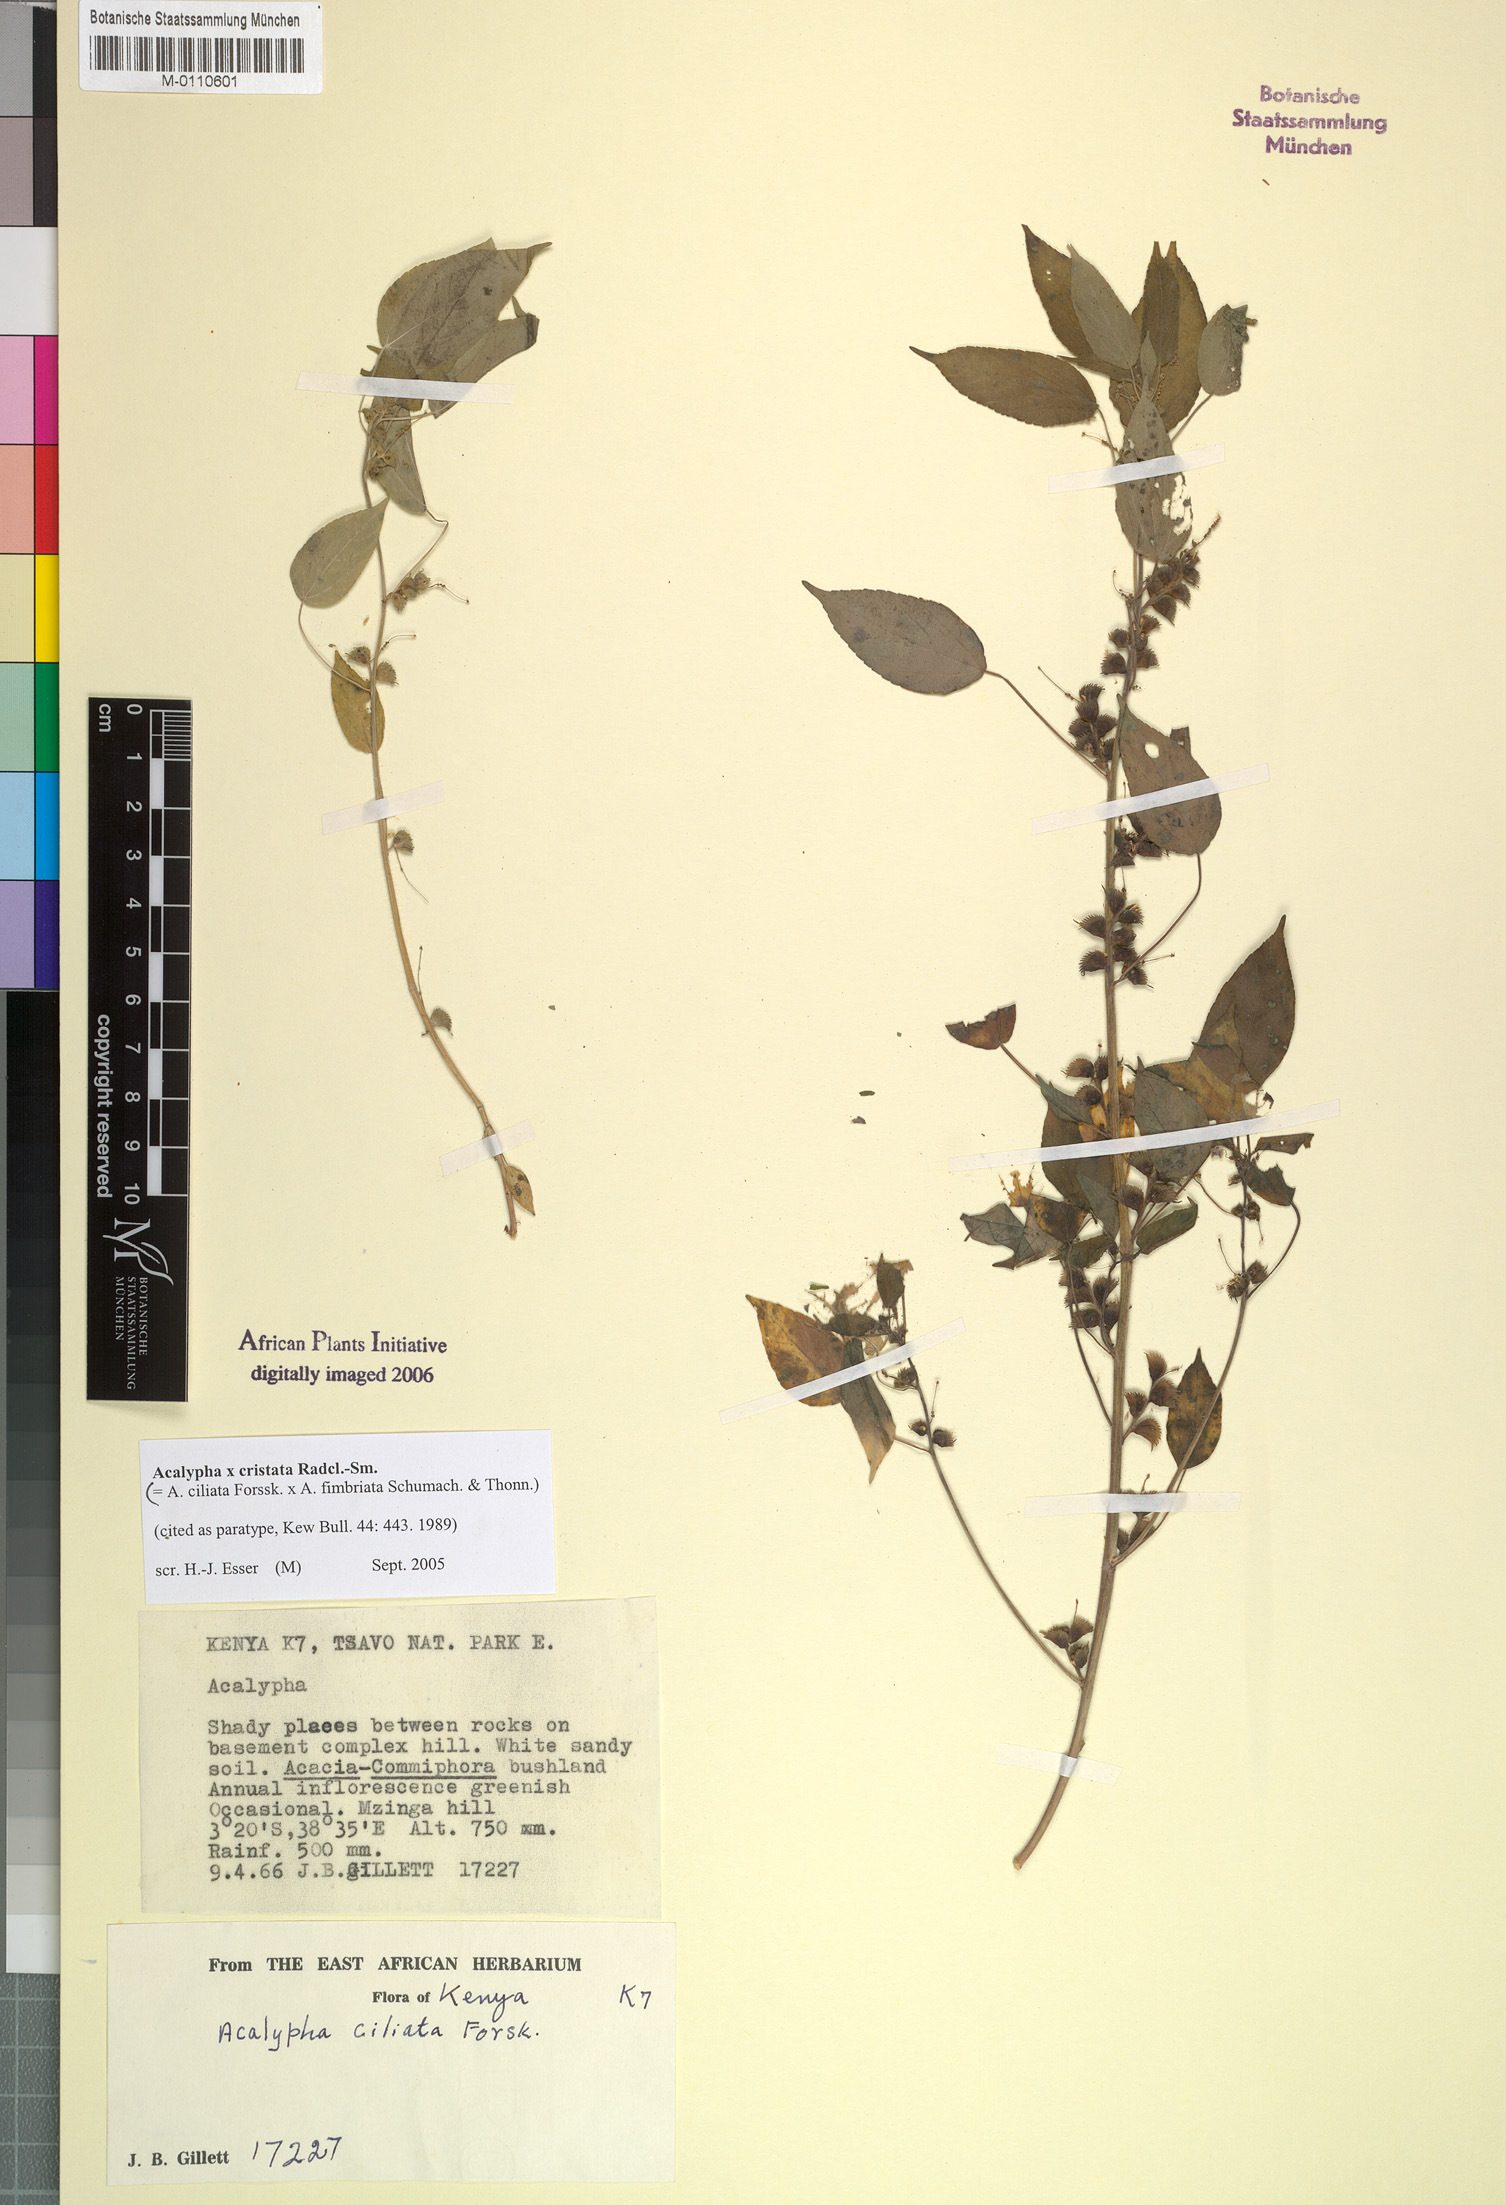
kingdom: Plantae
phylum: Tracheophyta
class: Magnoliopsida
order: Malpighiales
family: Euphorbiaceae
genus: Acalypha
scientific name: Acalypha cristata
